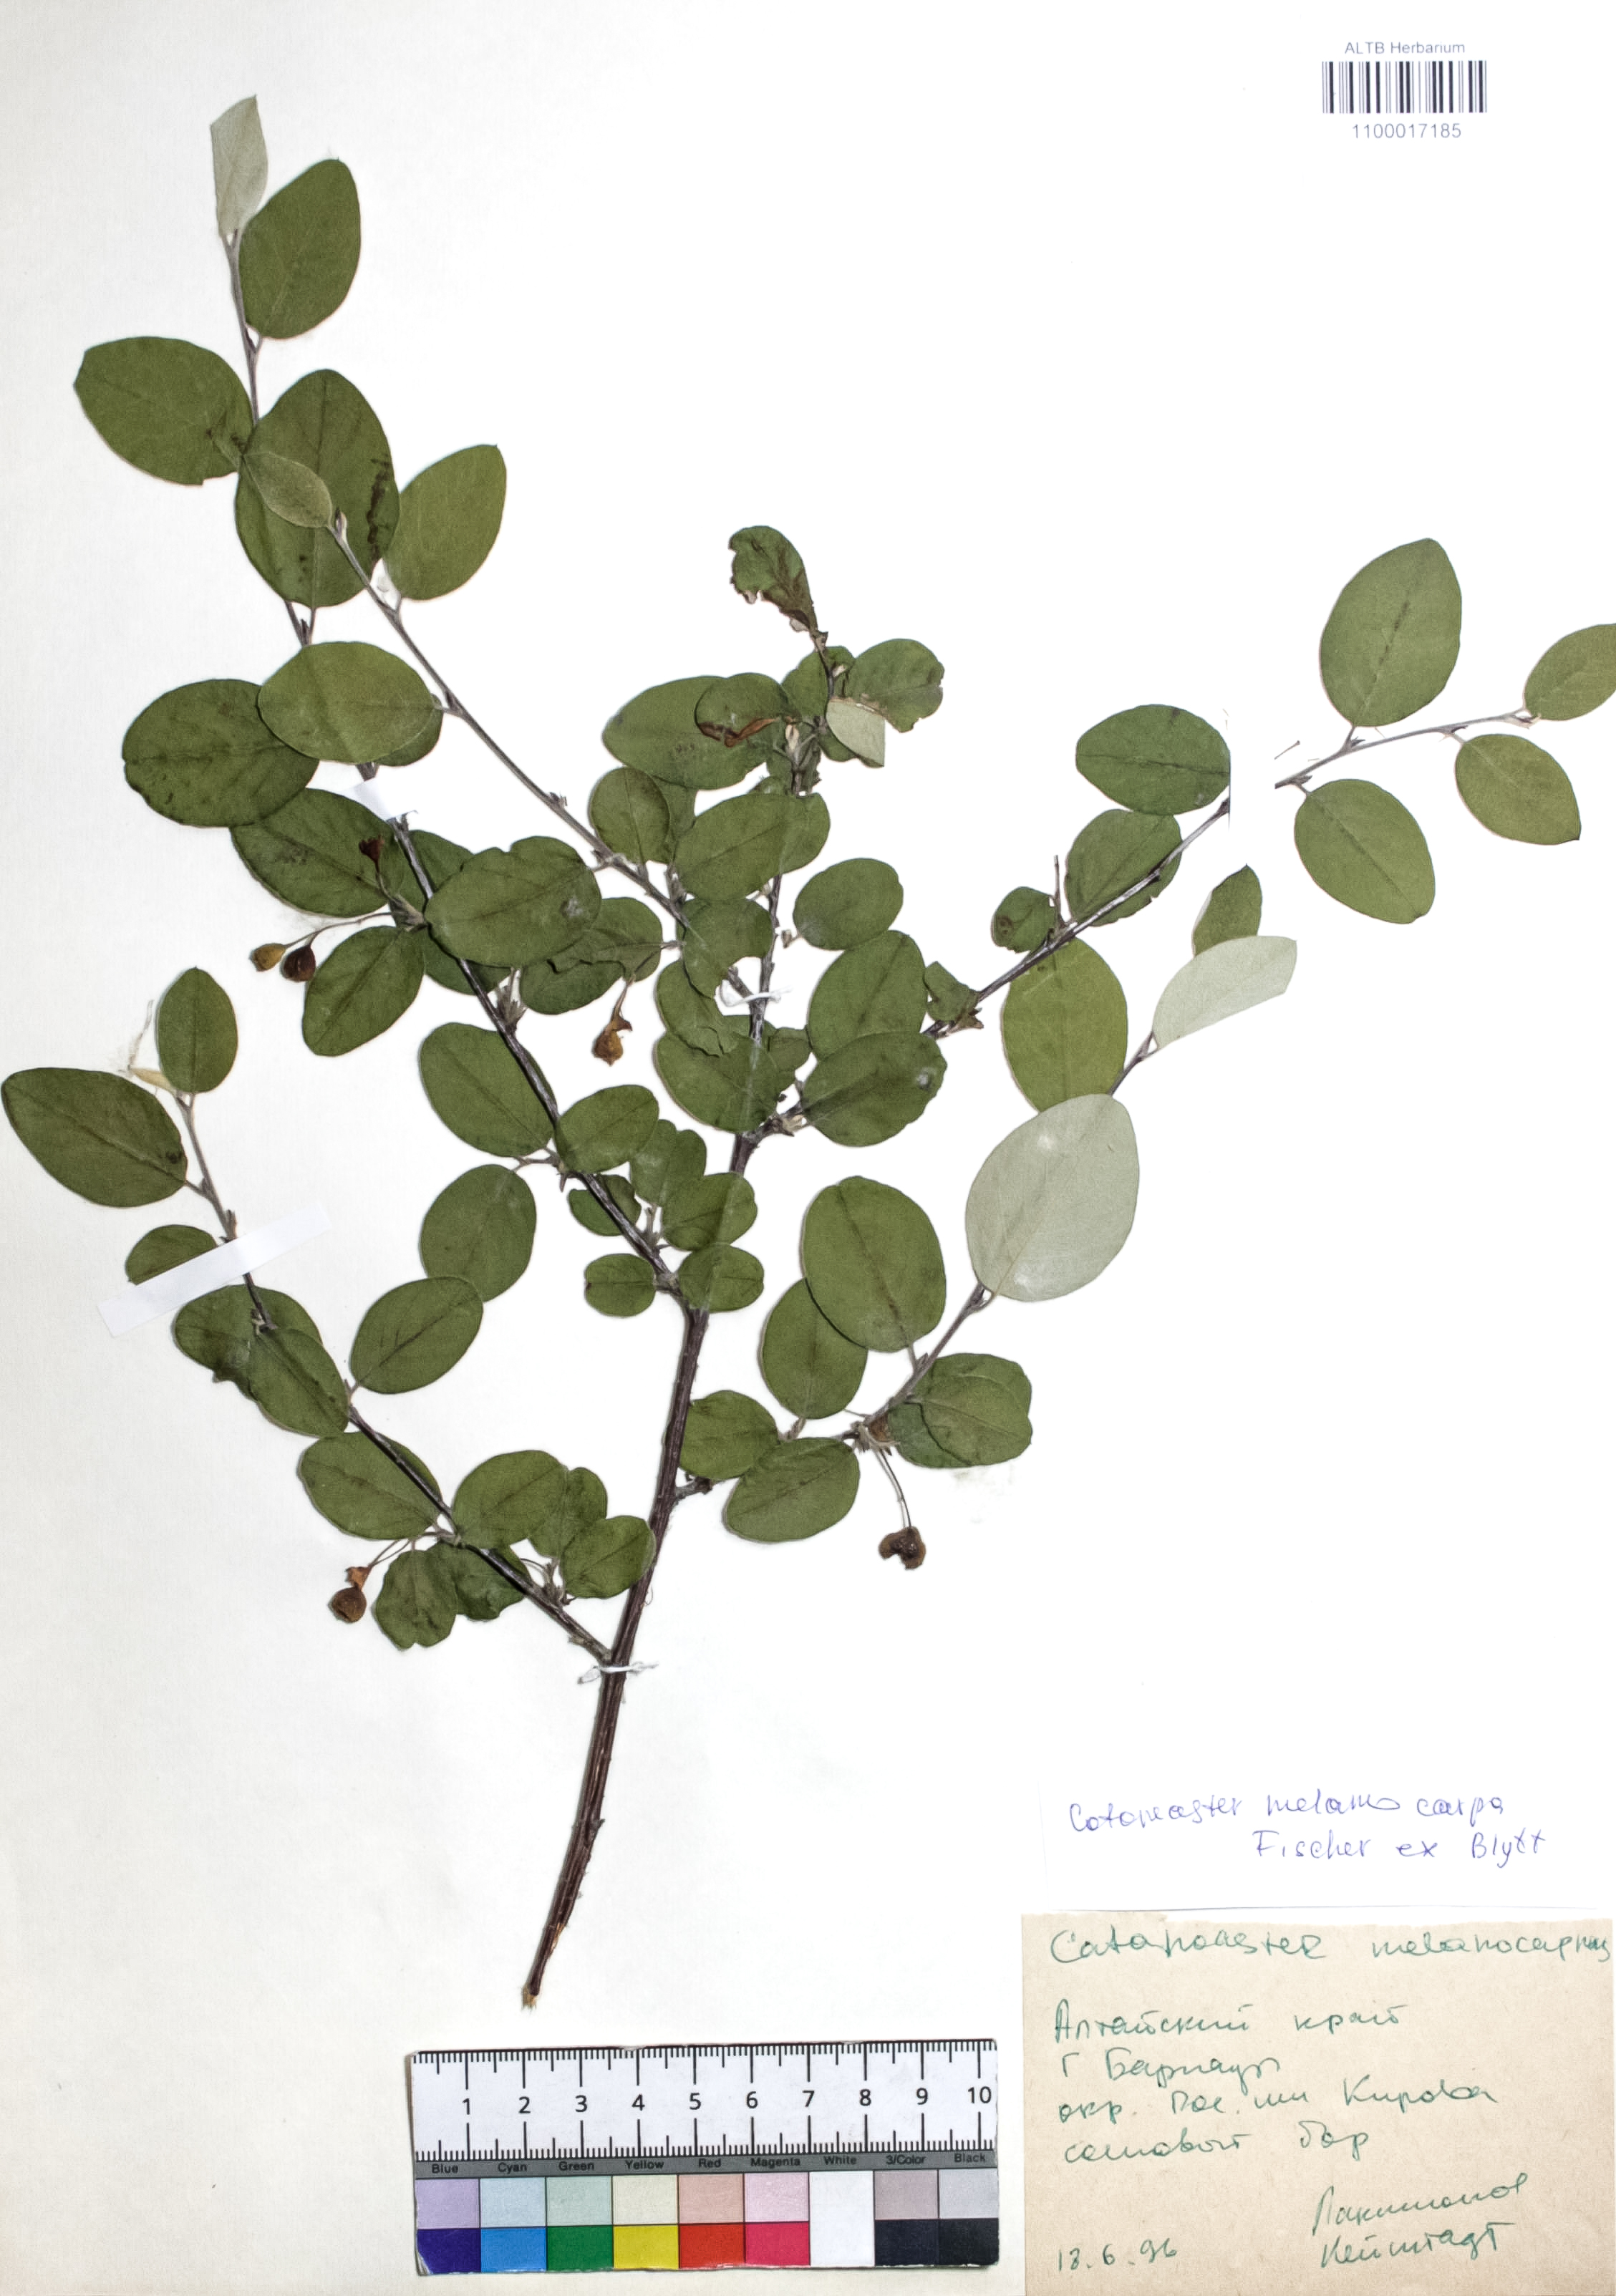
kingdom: Plantae
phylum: Tracheophyta
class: Magnoliopsida
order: Rosales
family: Rosaceae
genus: Cotoneaster
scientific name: Cotoneaster niger
